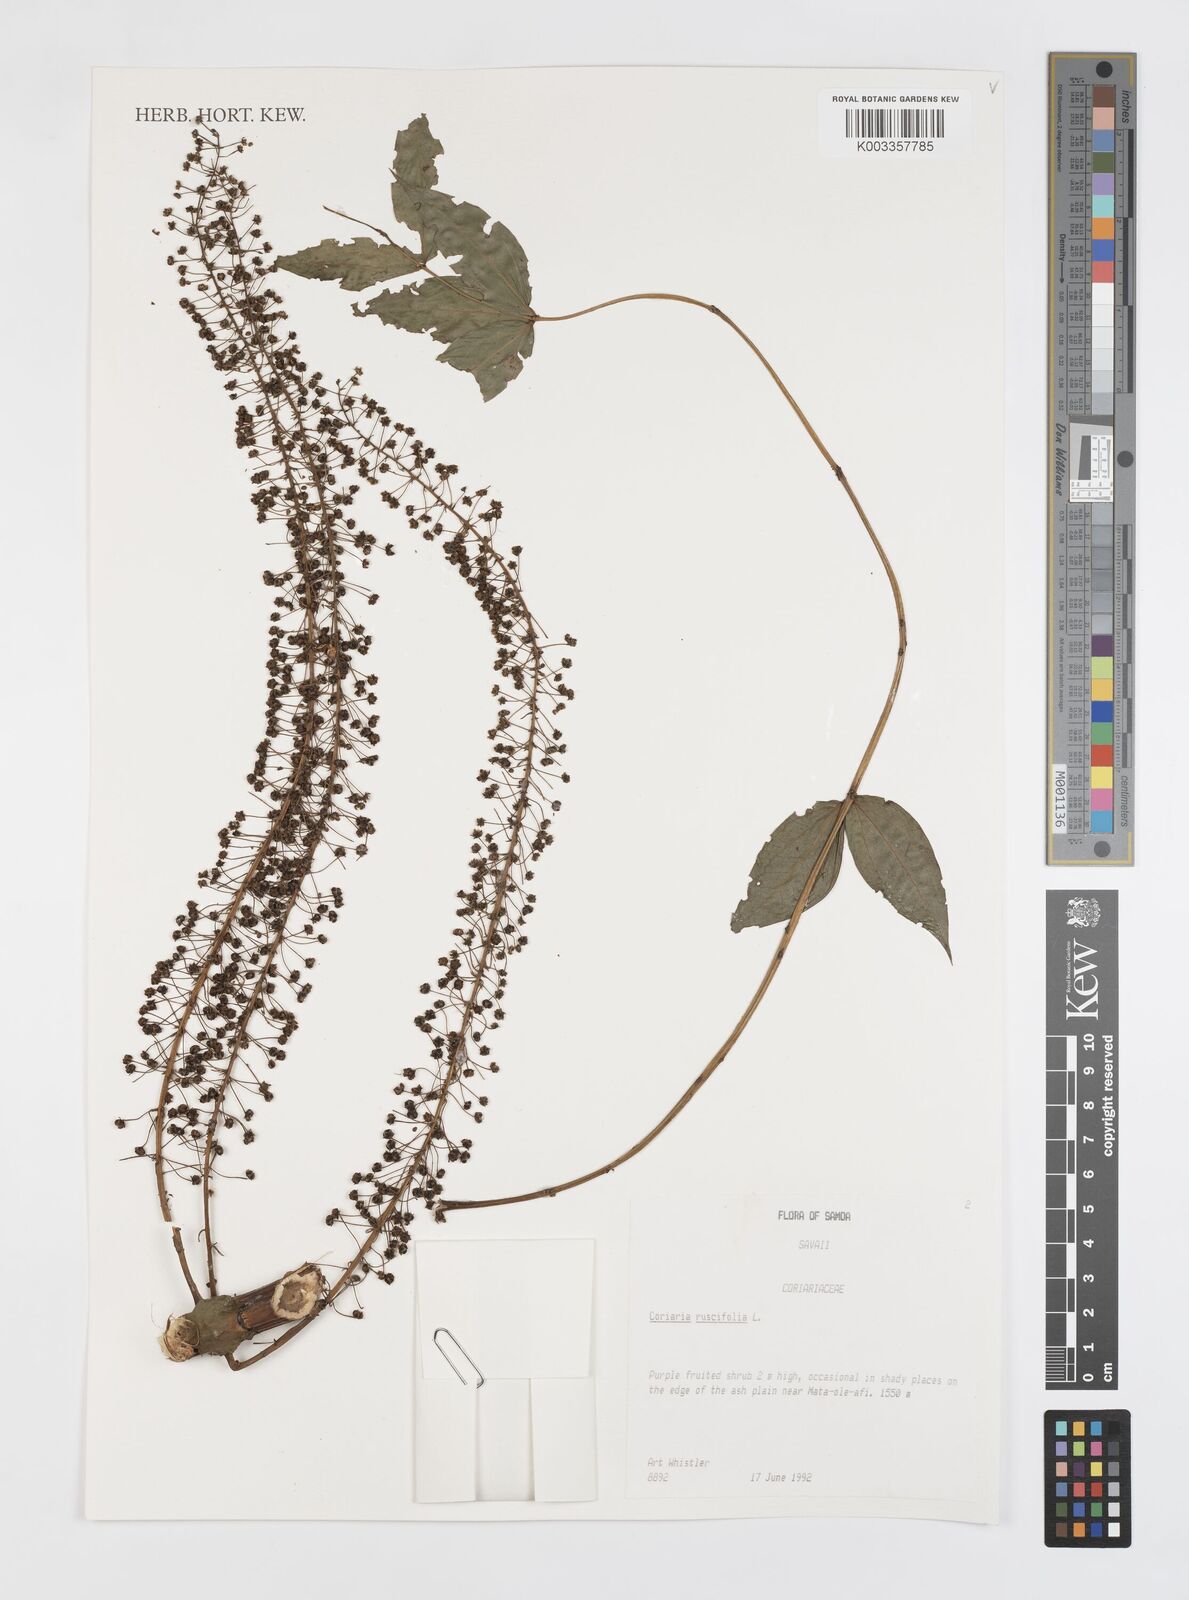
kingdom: Plantae
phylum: Tracheophyta
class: Magnoliopsida
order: Cucurbitales
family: Coriariaceae
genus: Coriaria
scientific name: Coriaria ruscifolia
